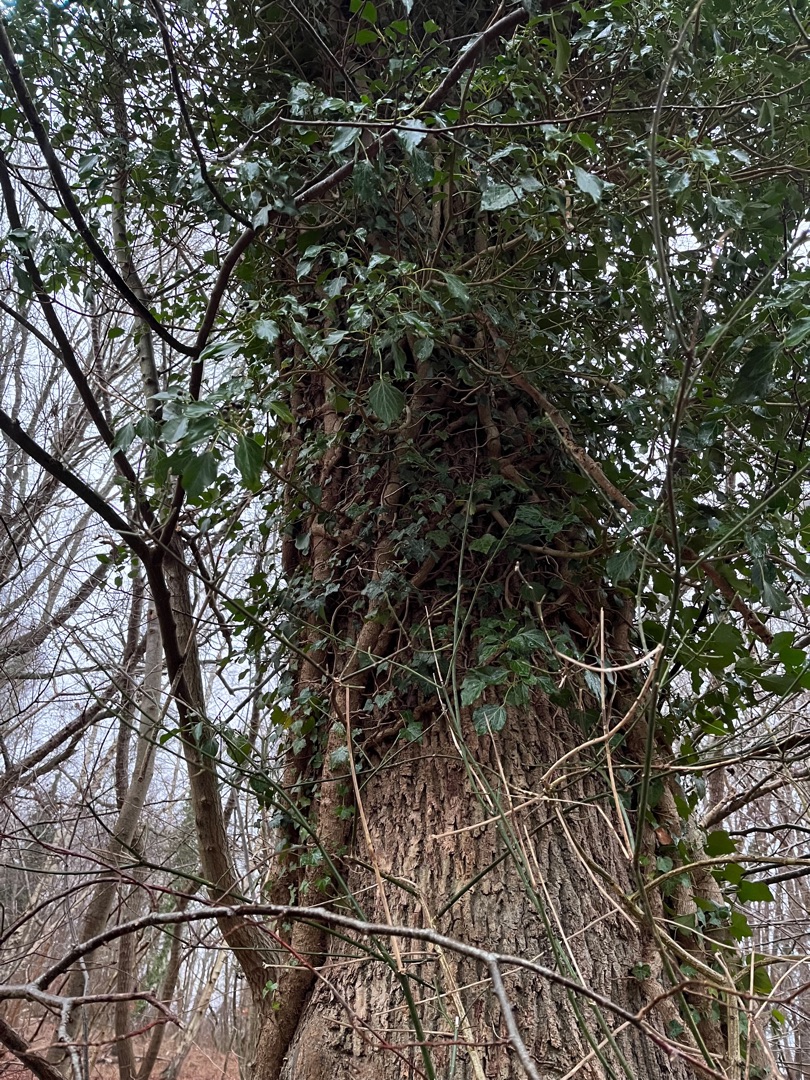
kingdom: Plantae
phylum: Tracheophyta
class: Magnoliopsida
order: Apiales
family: Araliaceae
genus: Hedera
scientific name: Hedera helix
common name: Vedbend
